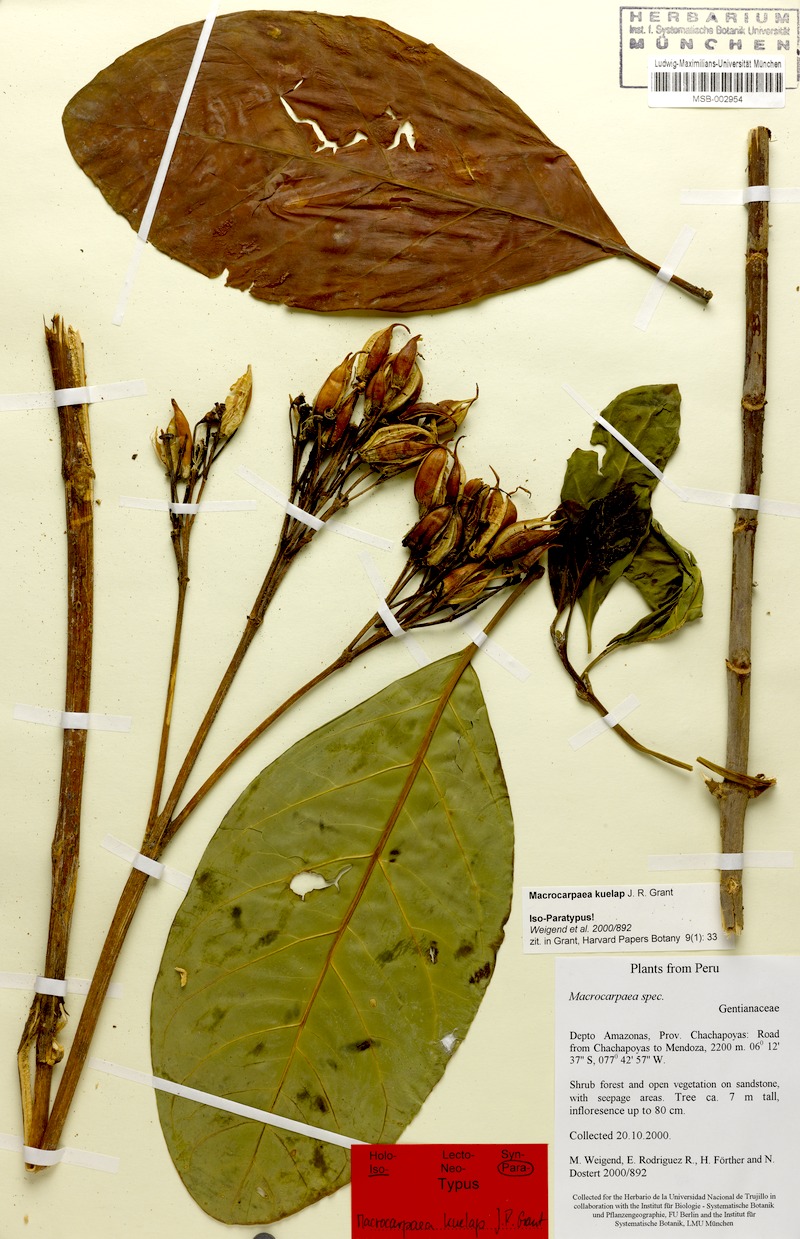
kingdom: Plantae
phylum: Tracheophyta
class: Magnoliopsida
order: Gentianales
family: Gentianaceae
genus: Macrocarpaea
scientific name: Macrocarpaea kuelap
